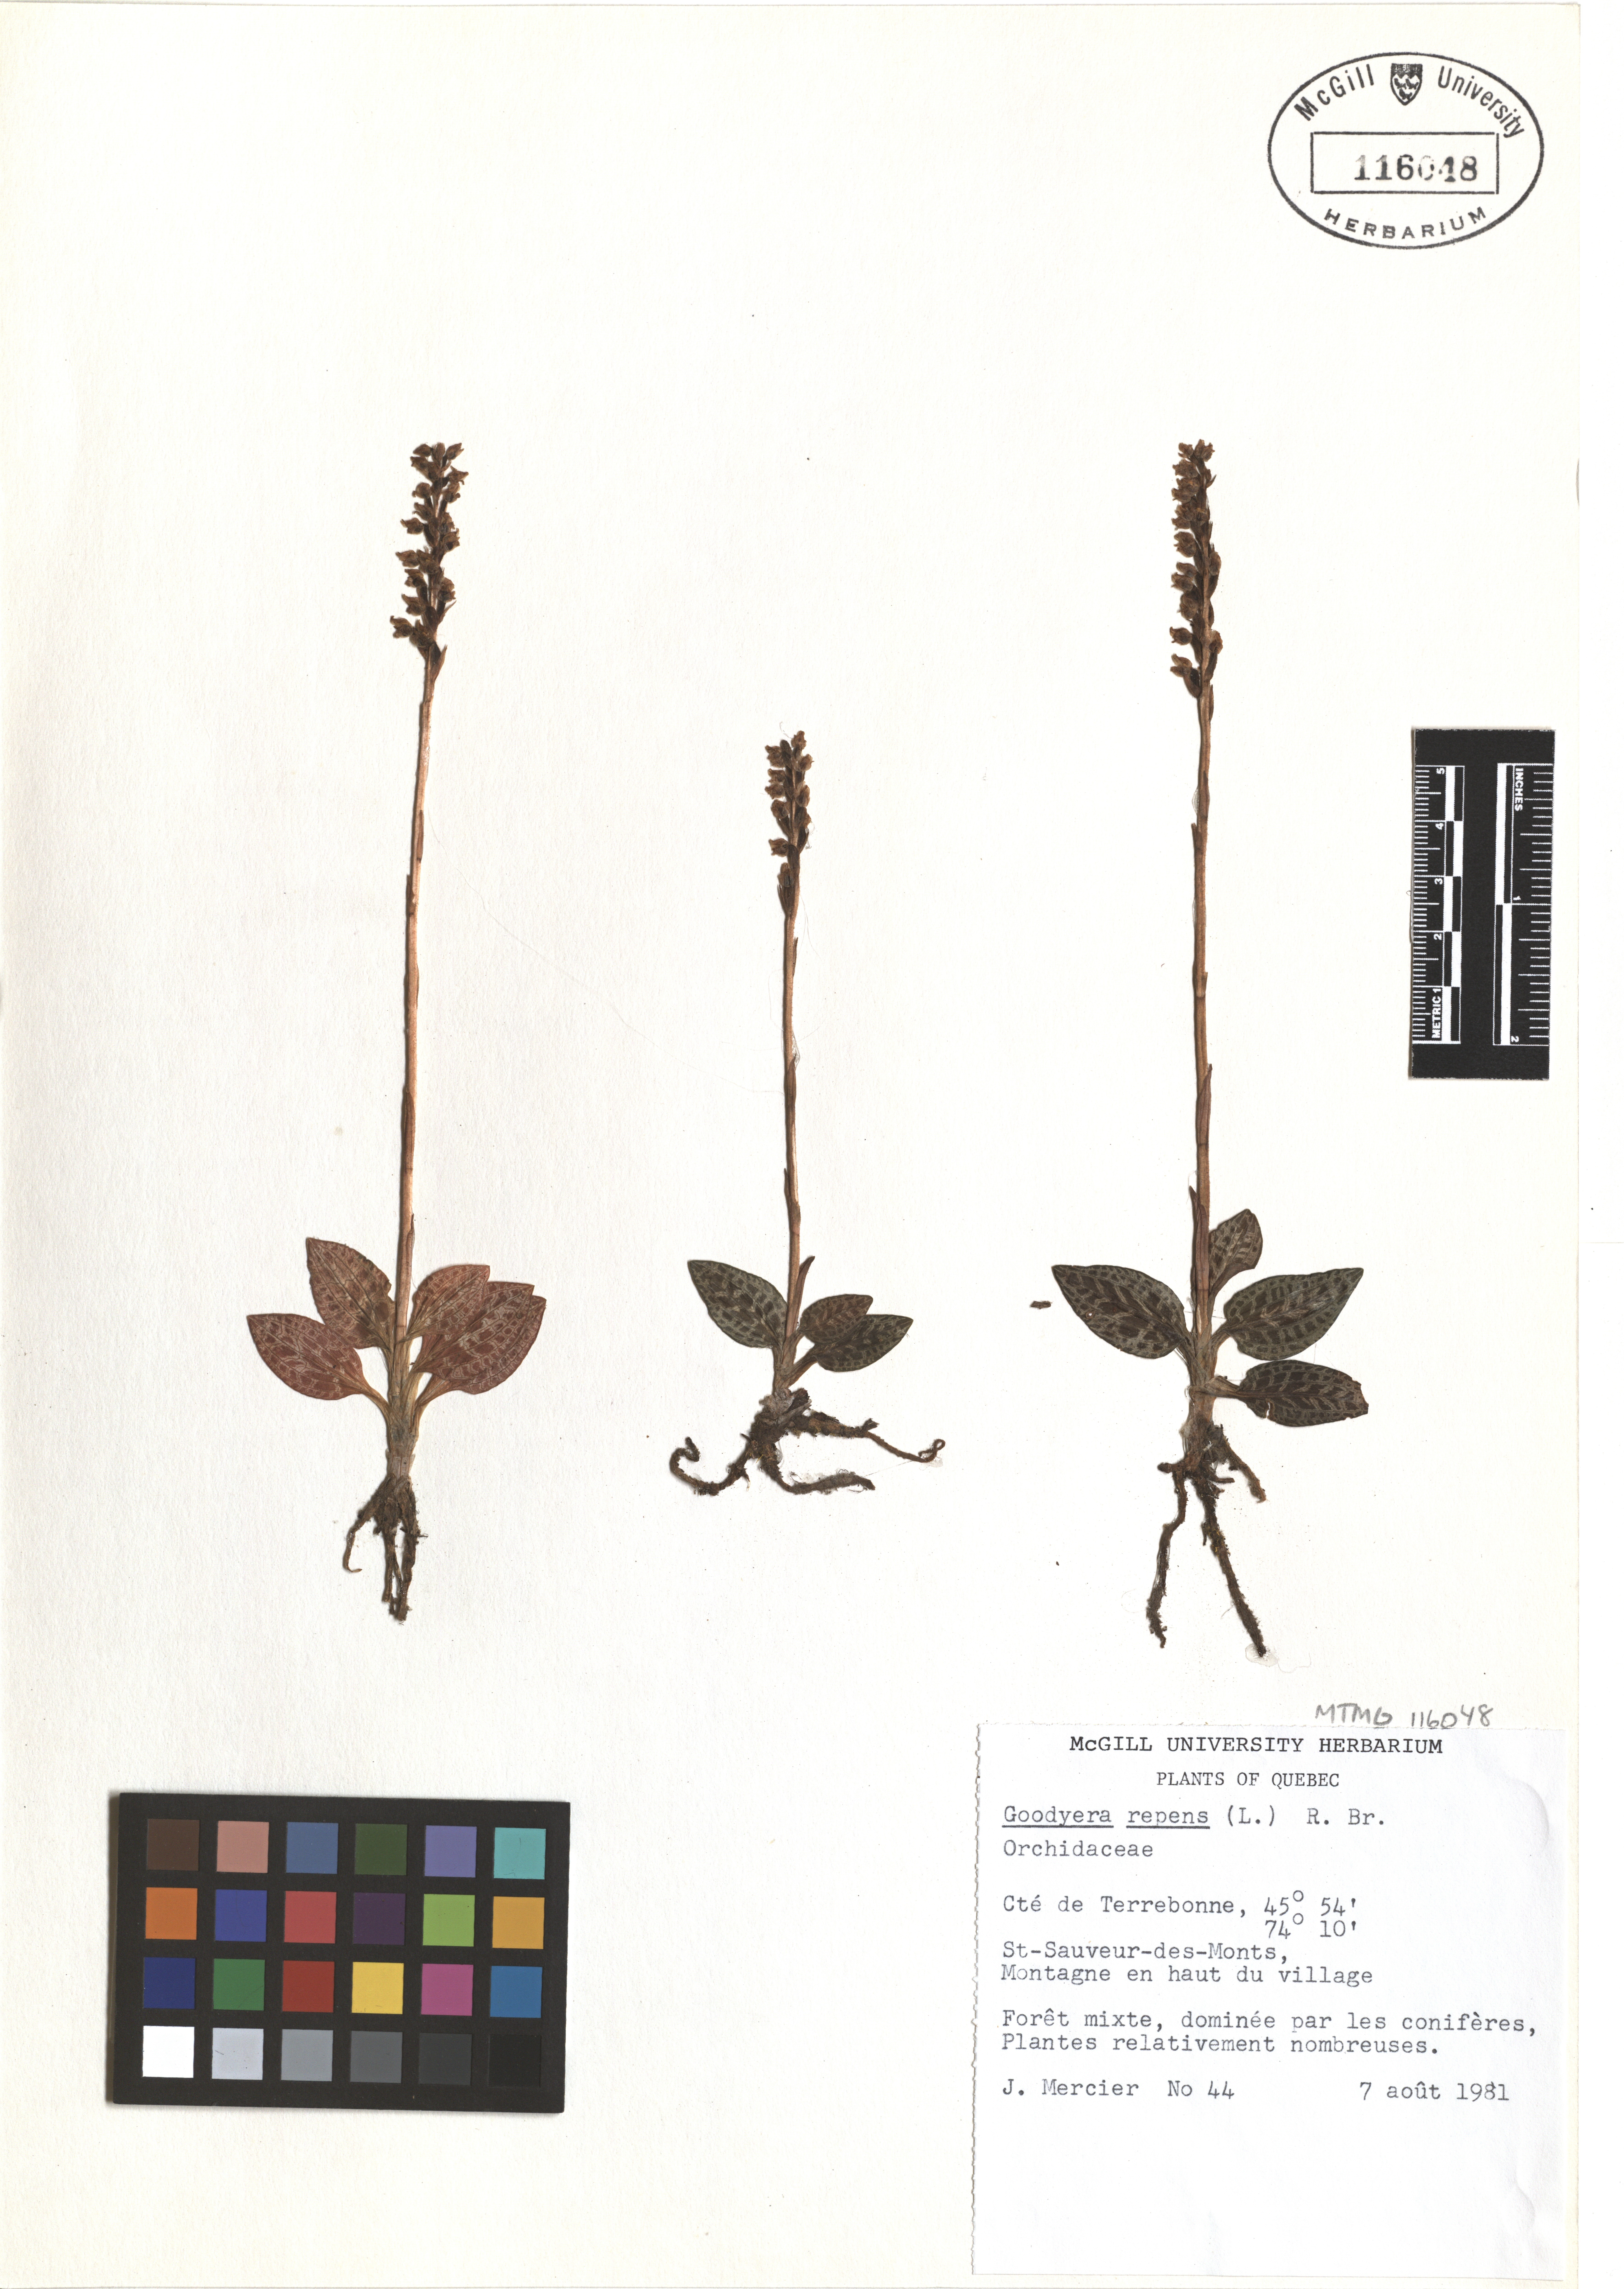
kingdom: Plantae
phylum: Tracheophyta
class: Liliopsida
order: Asparagales
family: Orchidaceae
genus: Goodyera
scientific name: Goodyera repens
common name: Creeping lady's-tresses
